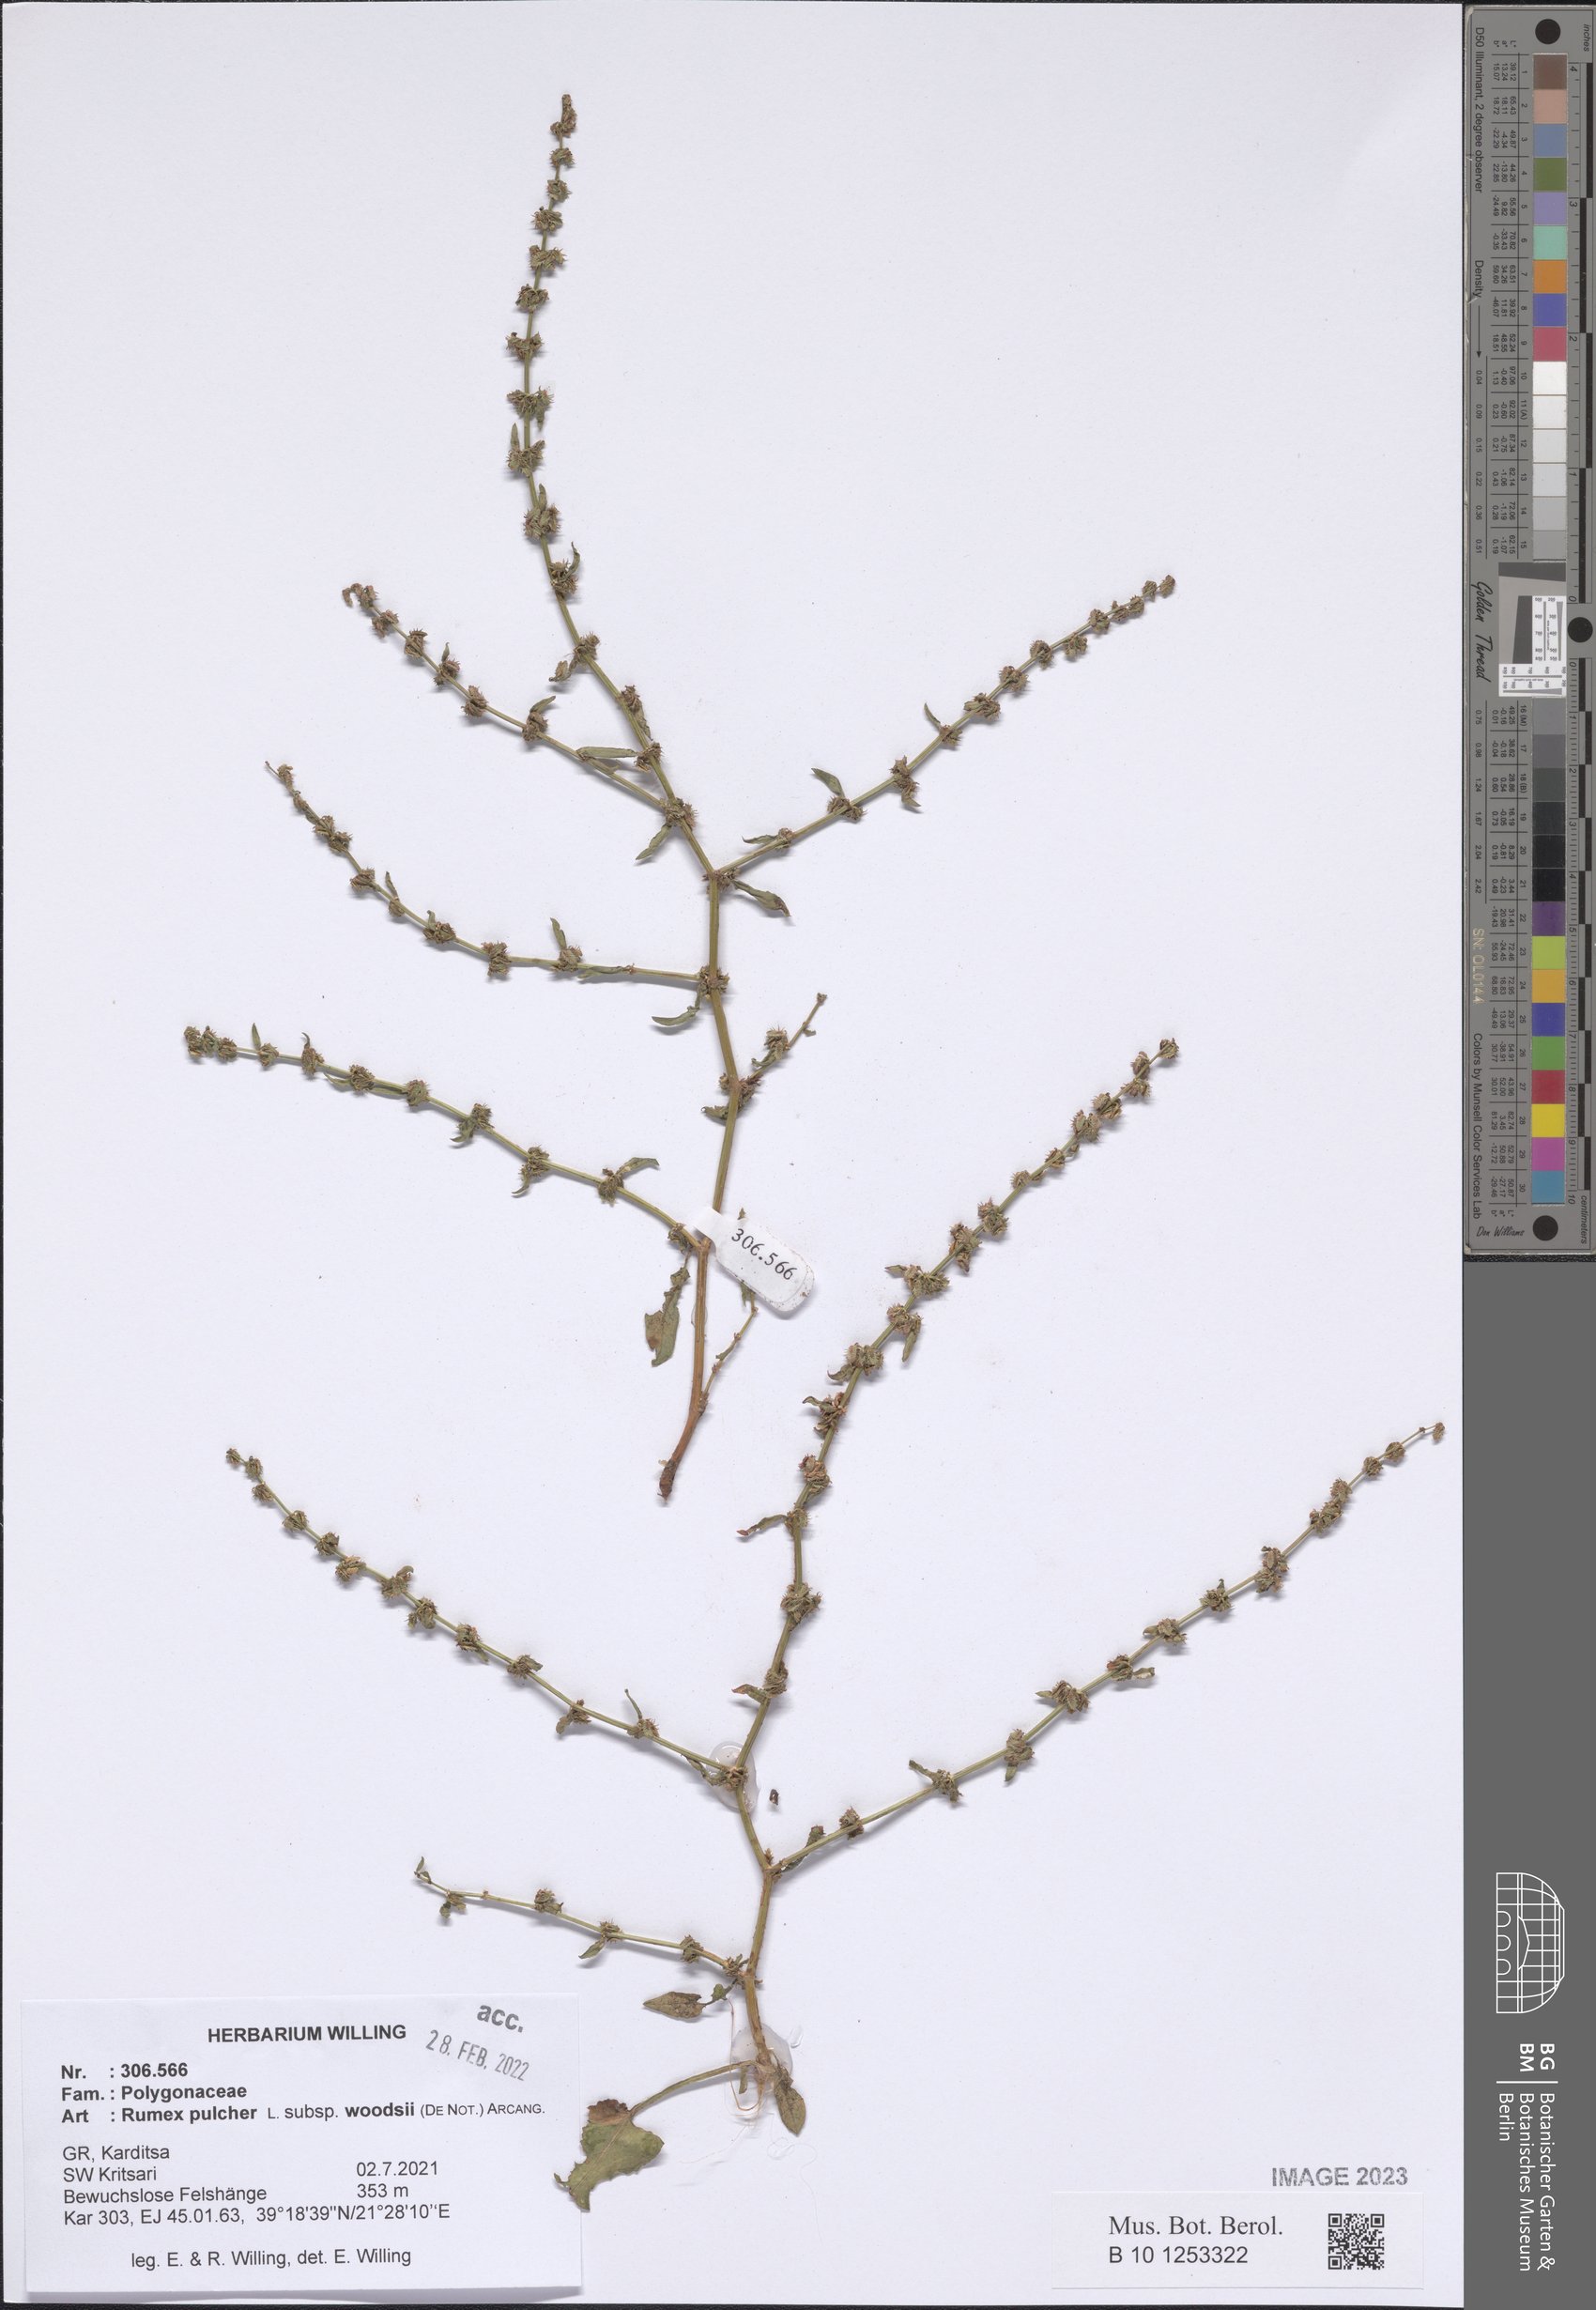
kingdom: Plantae
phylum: Tracheophyta
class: Magnoliopsida
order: Caryophyllales
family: Polygonaceae
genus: Rumex
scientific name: Rumex pulcher
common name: Fiddle dock
